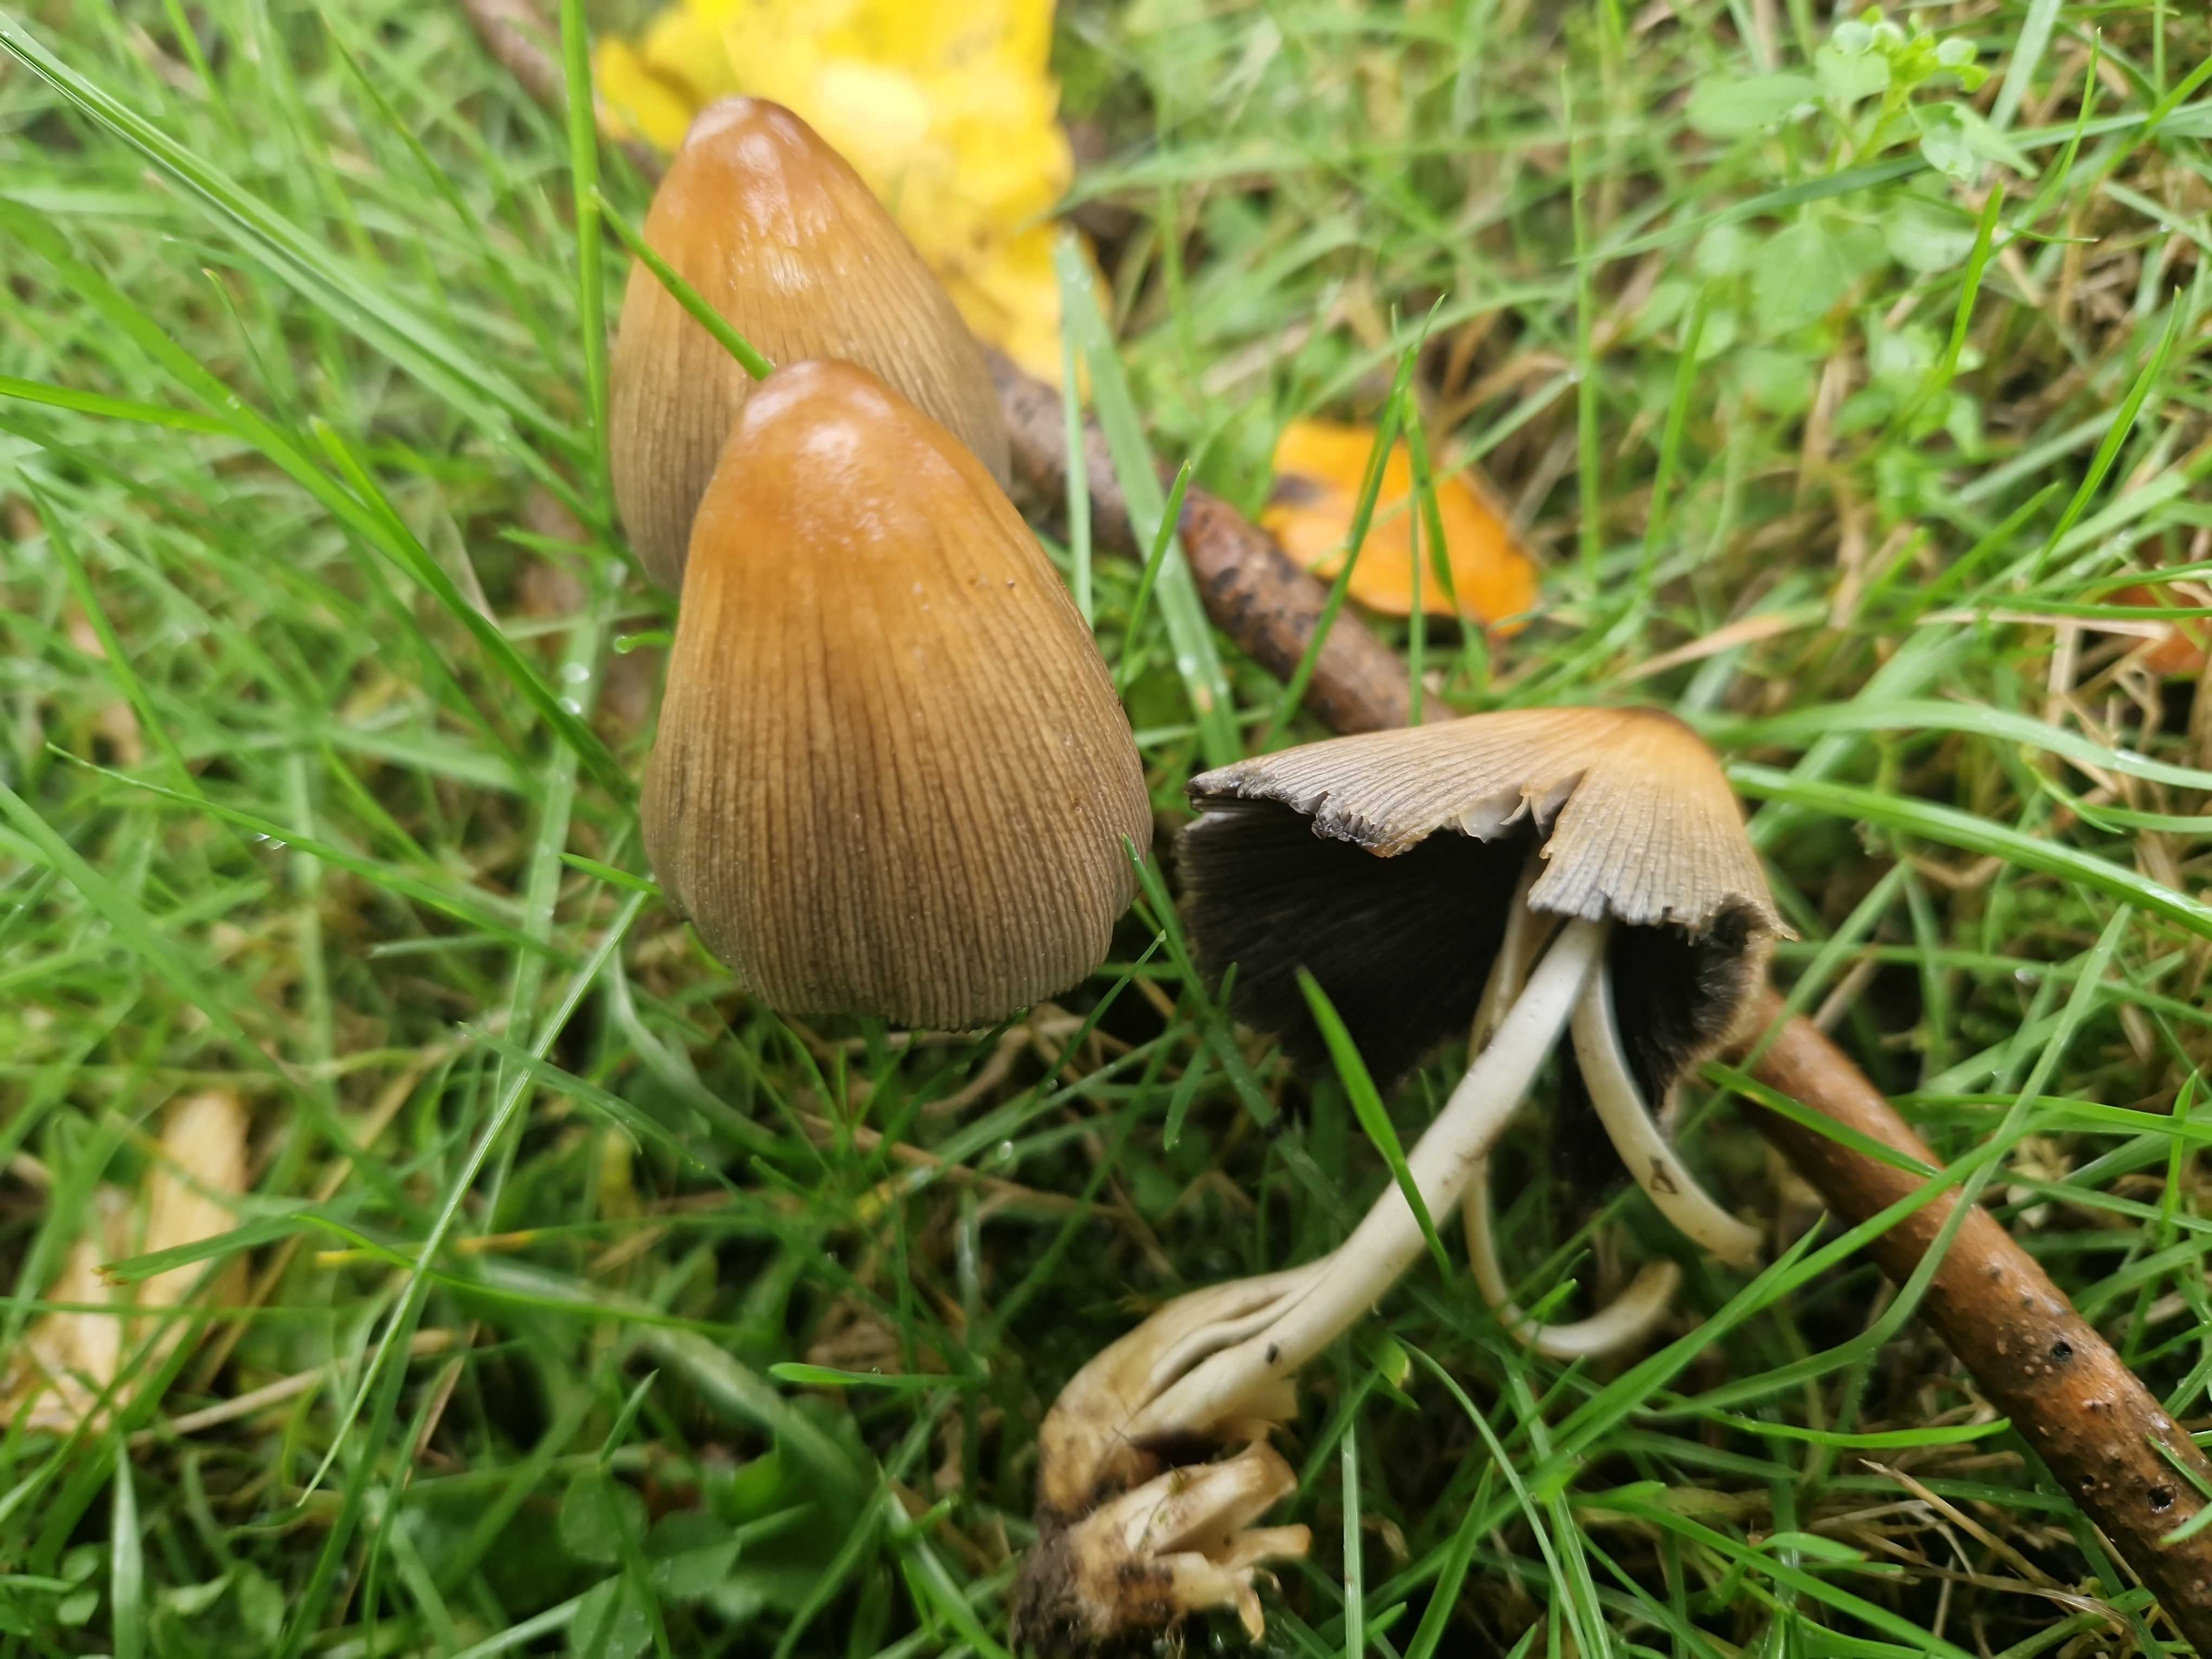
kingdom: Fungi
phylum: Basidiomycota
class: Agaricomycetes
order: Agaricales
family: Psathyrellaceae
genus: Coprinellus
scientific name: Coprinellus
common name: blækhat
